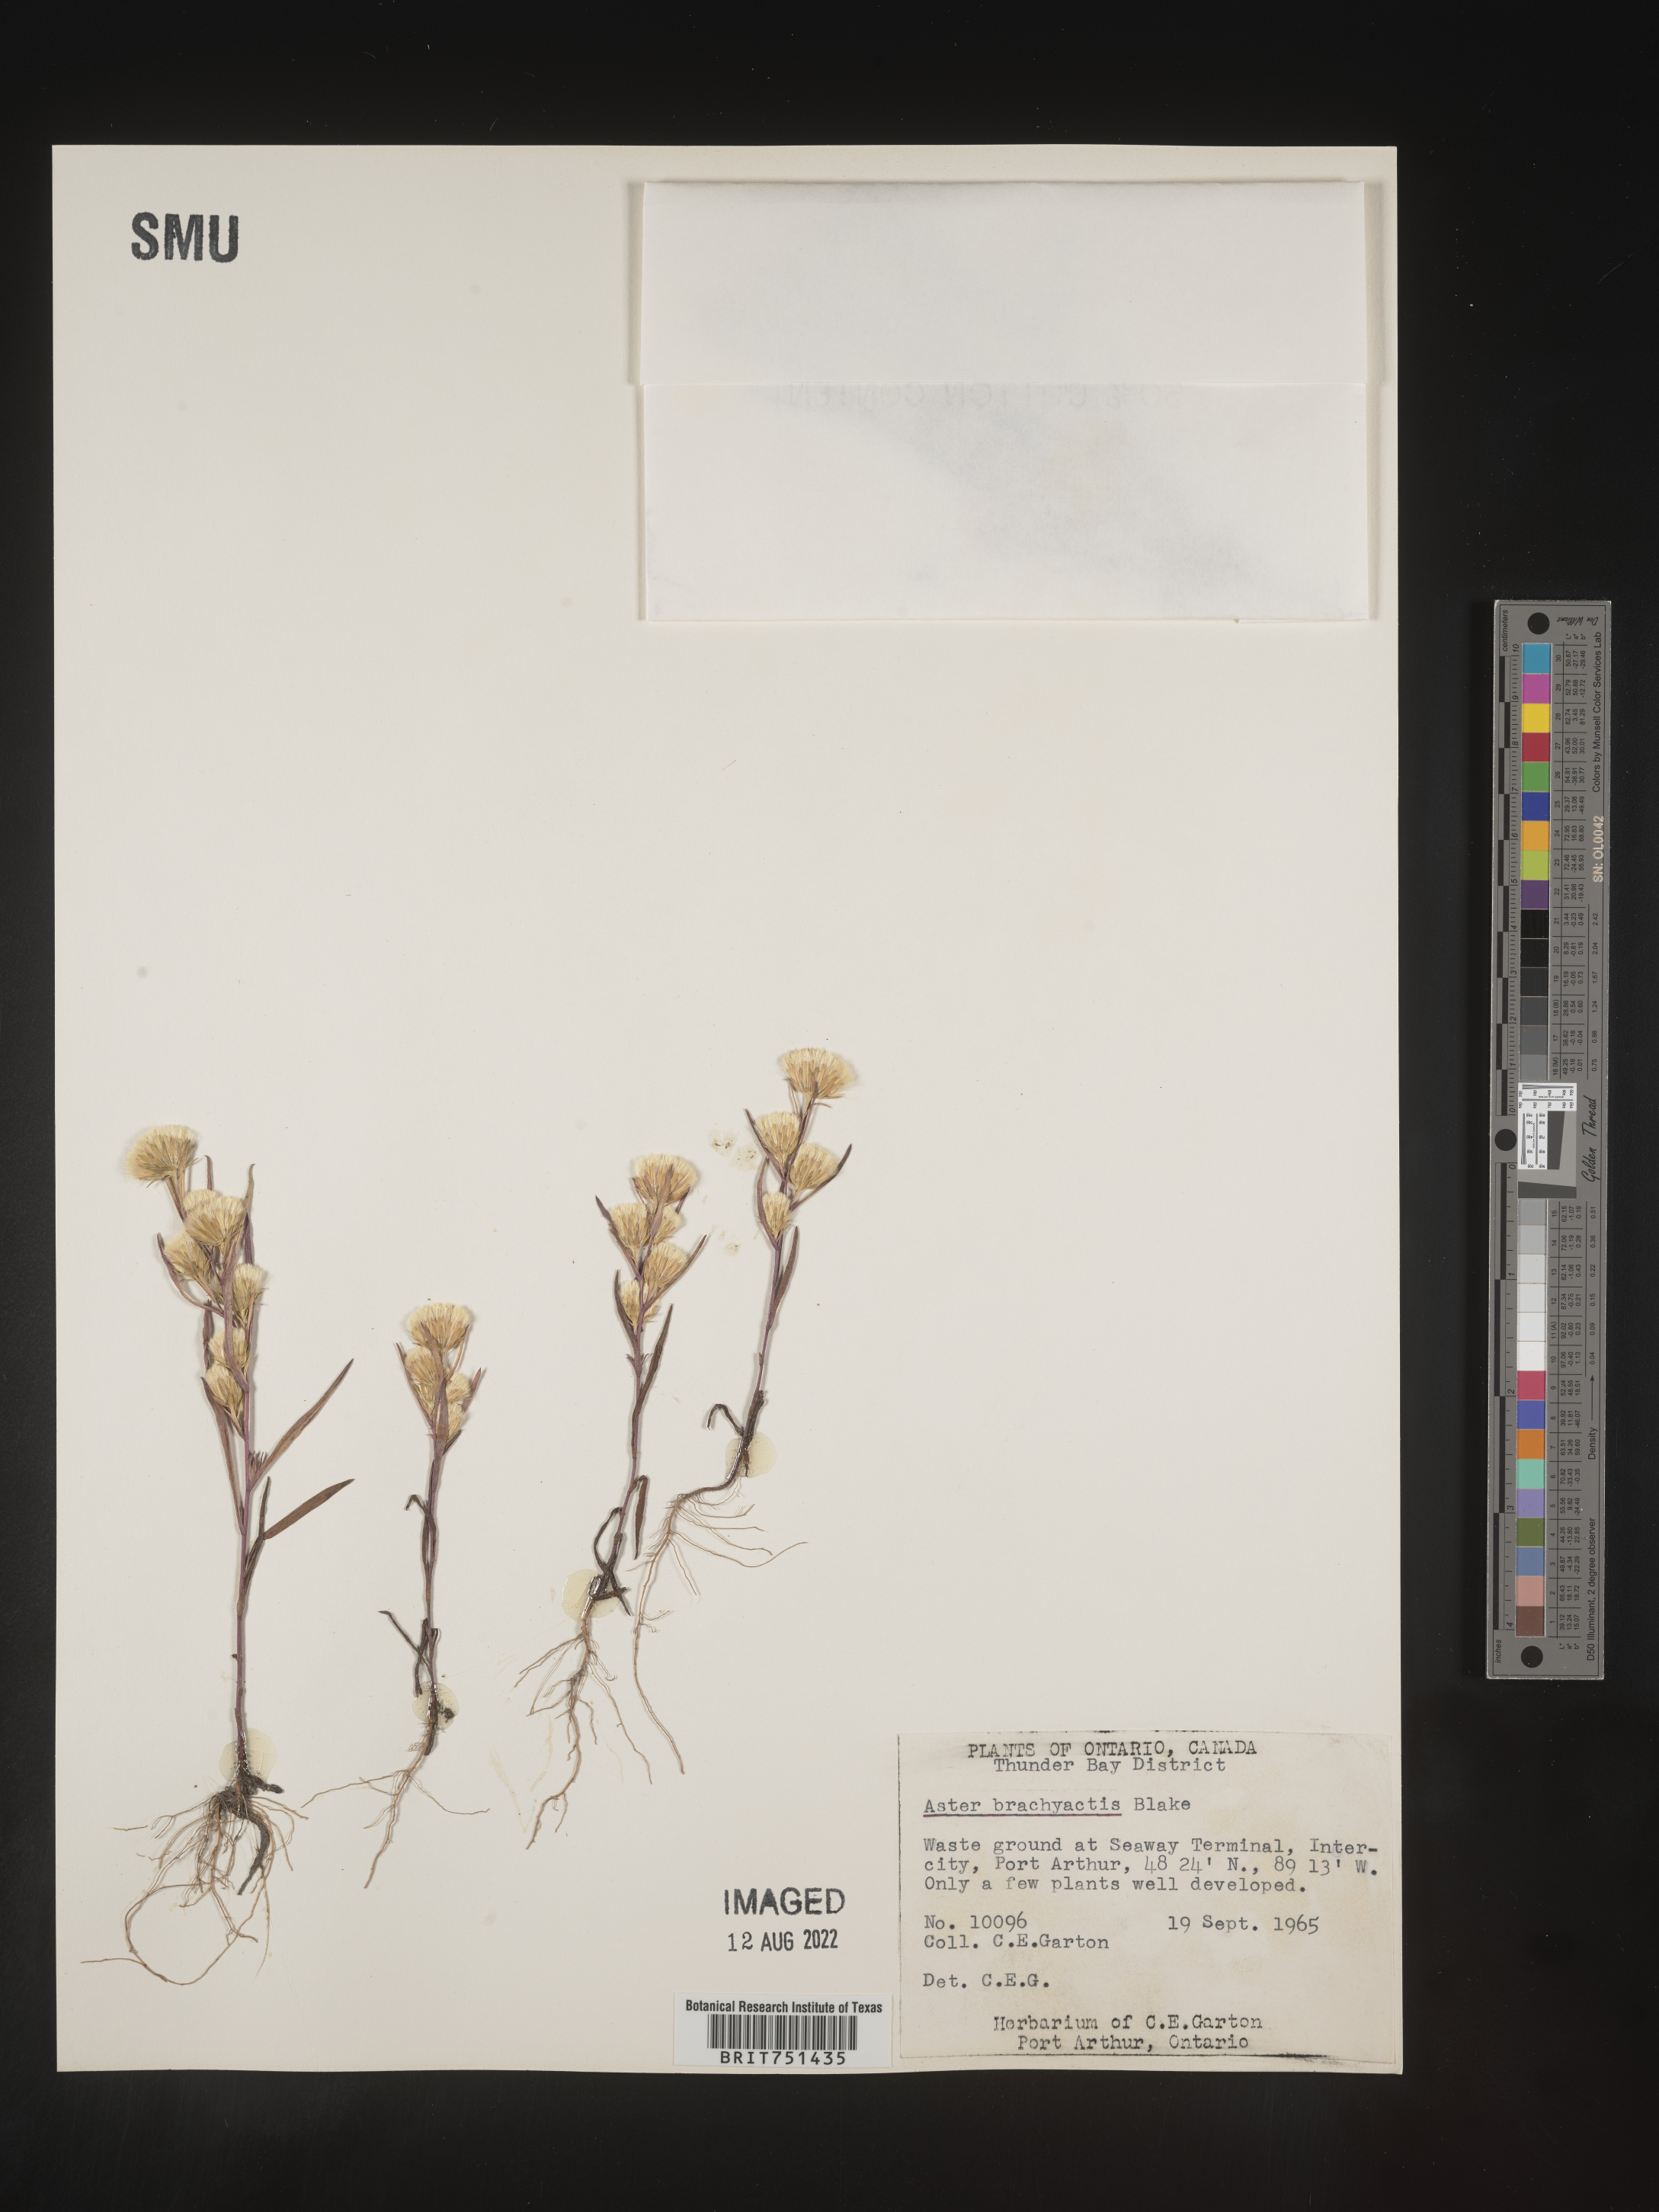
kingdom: Plantae
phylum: Tracheophyta
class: Magnoliopsida
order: Asterales
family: Asteraceae
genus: Symphyotrichum
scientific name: Symphyotrichum ciliatum
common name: Rayless annual aster
